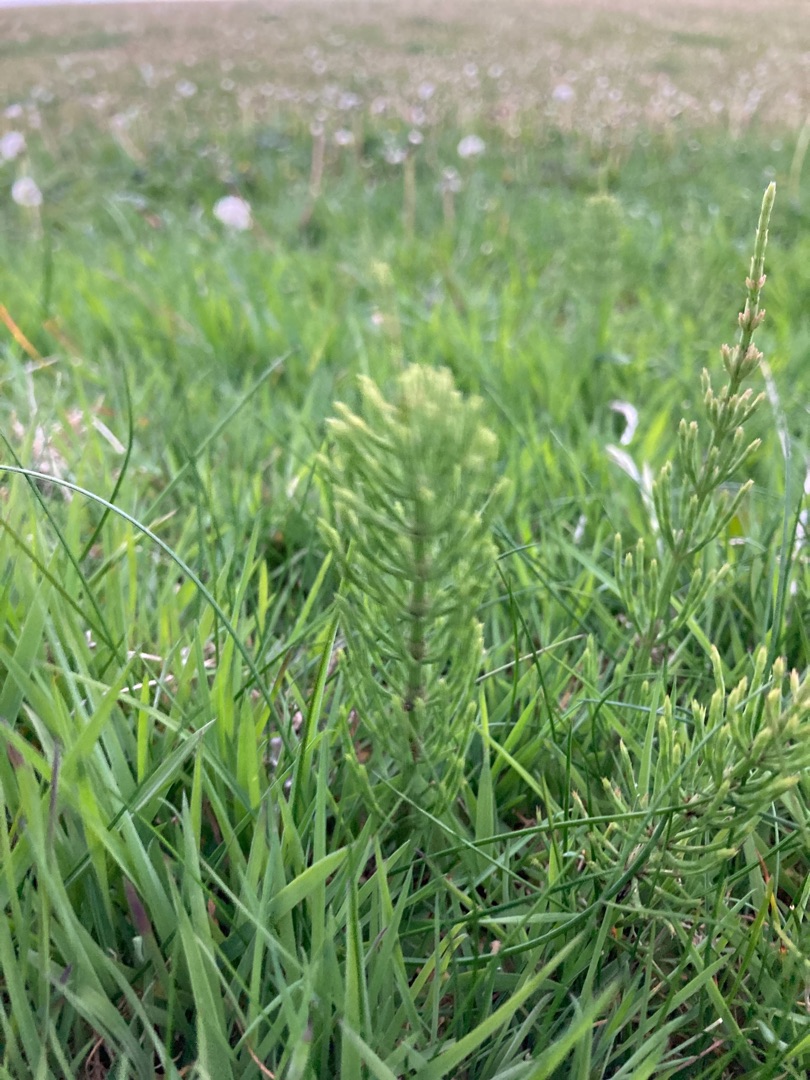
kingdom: Plantae
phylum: Tracheophyta
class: Polypodiopsida
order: Equisetales
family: Equisetaceae
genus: Equisetum
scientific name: Equisetum arvense
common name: Ager-padderok
